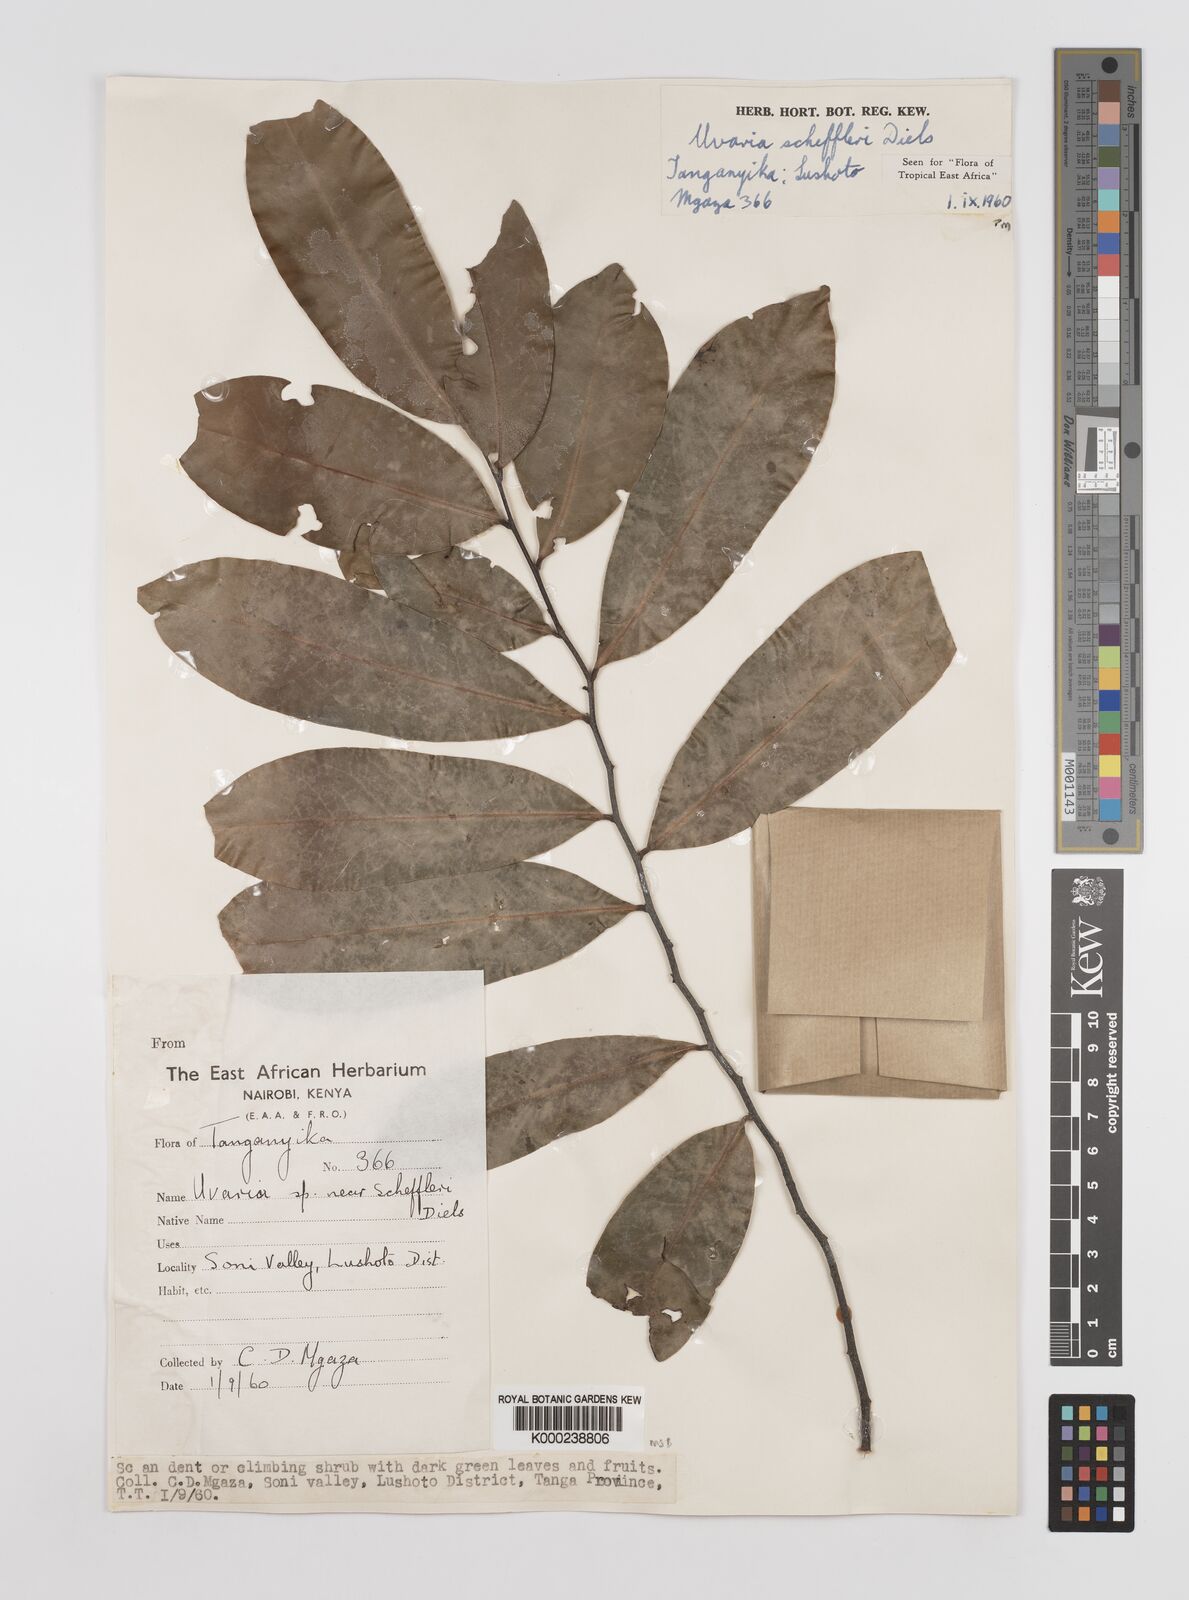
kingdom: Plantae
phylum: Tracheophyta
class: Magnoliopsida
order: Magnoliales
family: Annonaceae
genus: Uvaria
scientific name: Uvaria scheffleri
